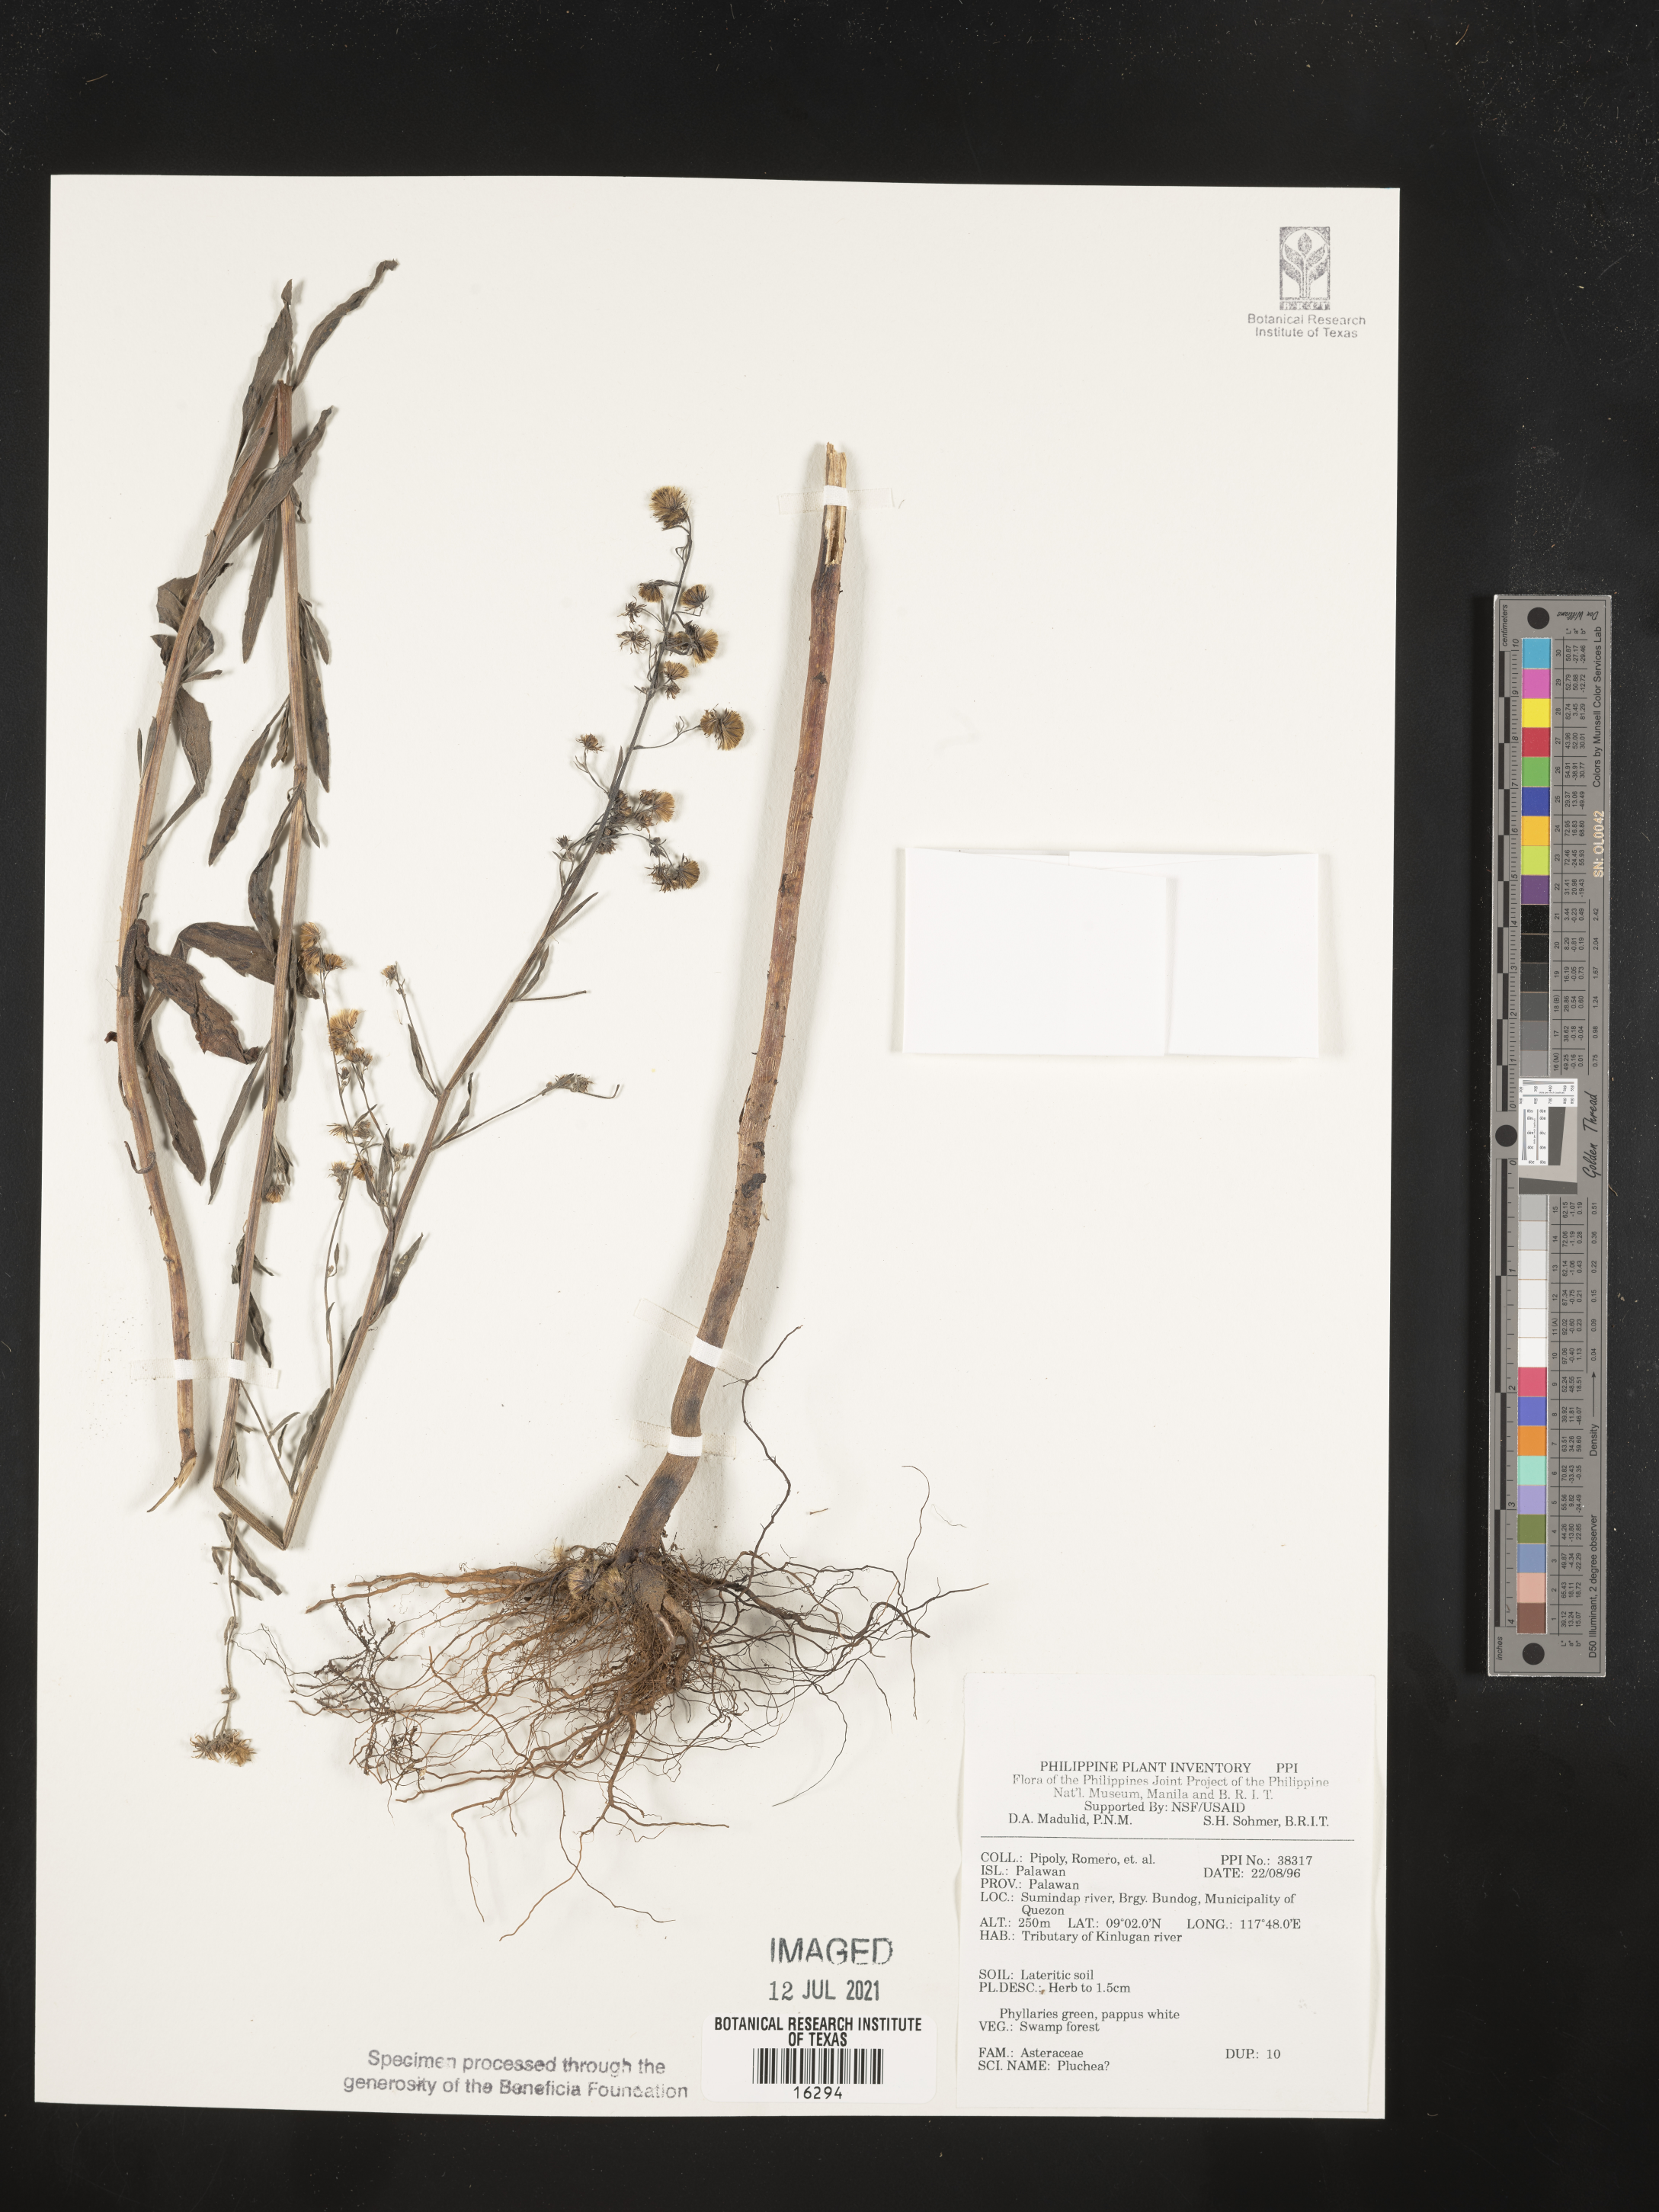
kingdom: Plantae
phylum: Tracheophyta
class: Magnoliopsida
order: Asterales
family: Asteraceae
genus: Pluchea
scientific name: Pluchea
